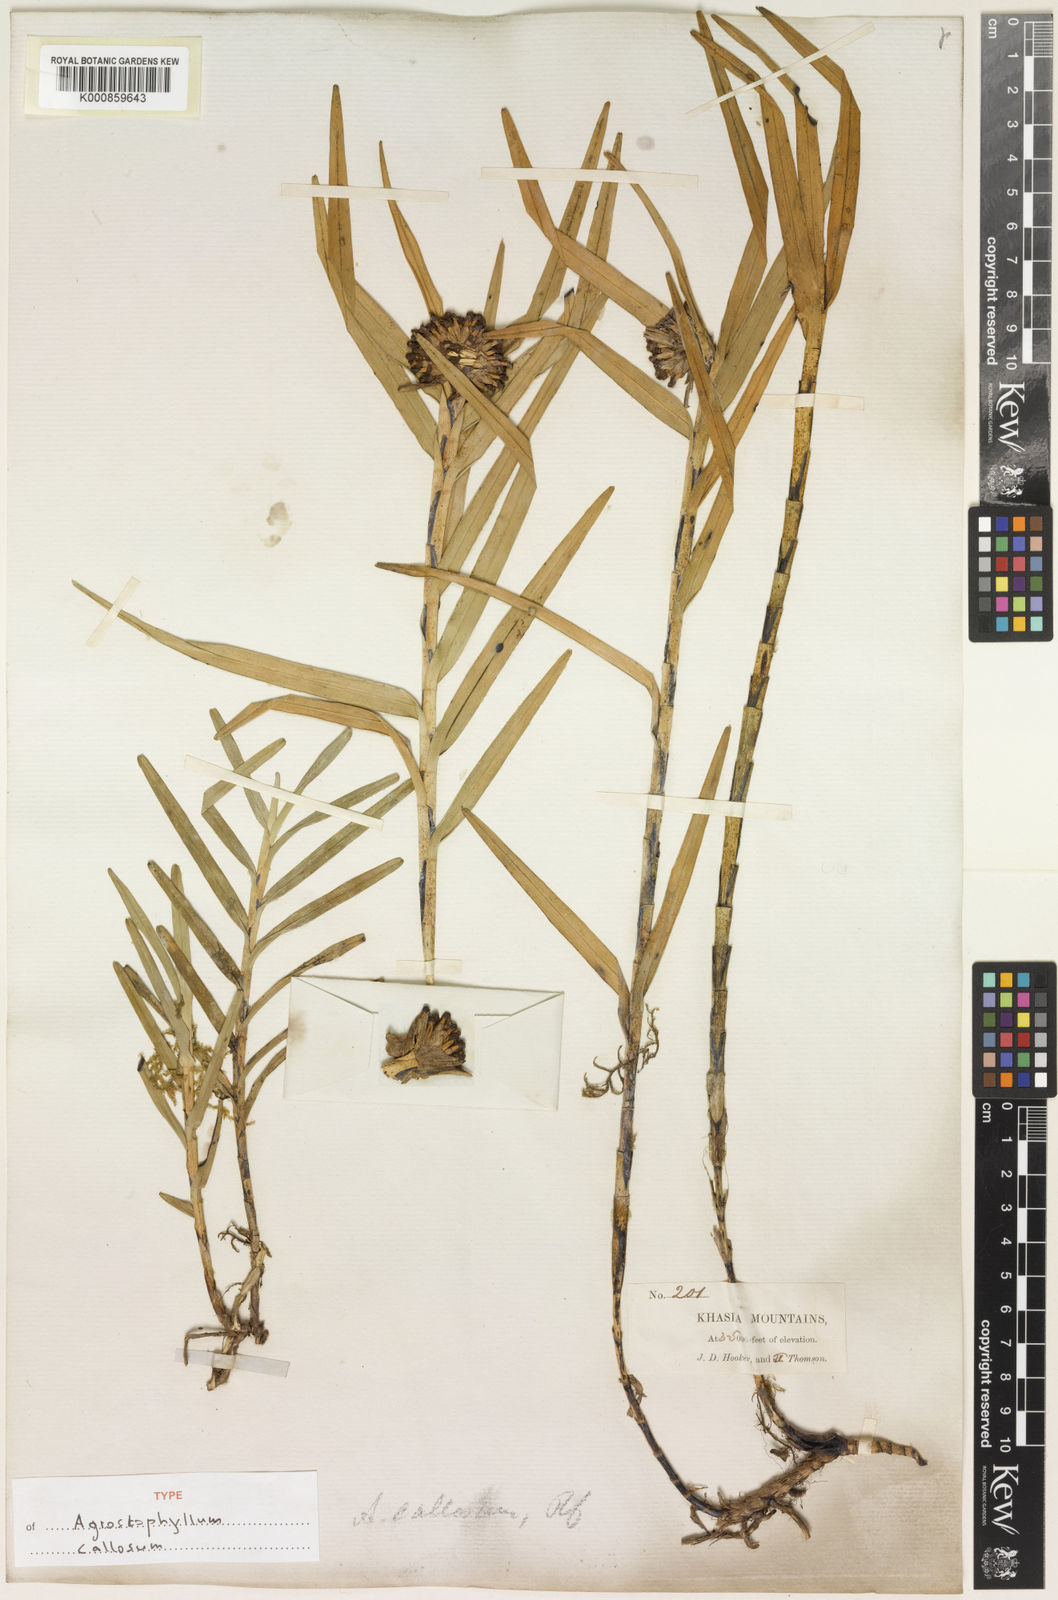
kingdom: Plantae
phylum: Tracheophyta
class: Liliopsida
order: Asparagales
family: Orchidaceae
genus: Agrostophyllum
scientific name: Agrostophyllum callosum
